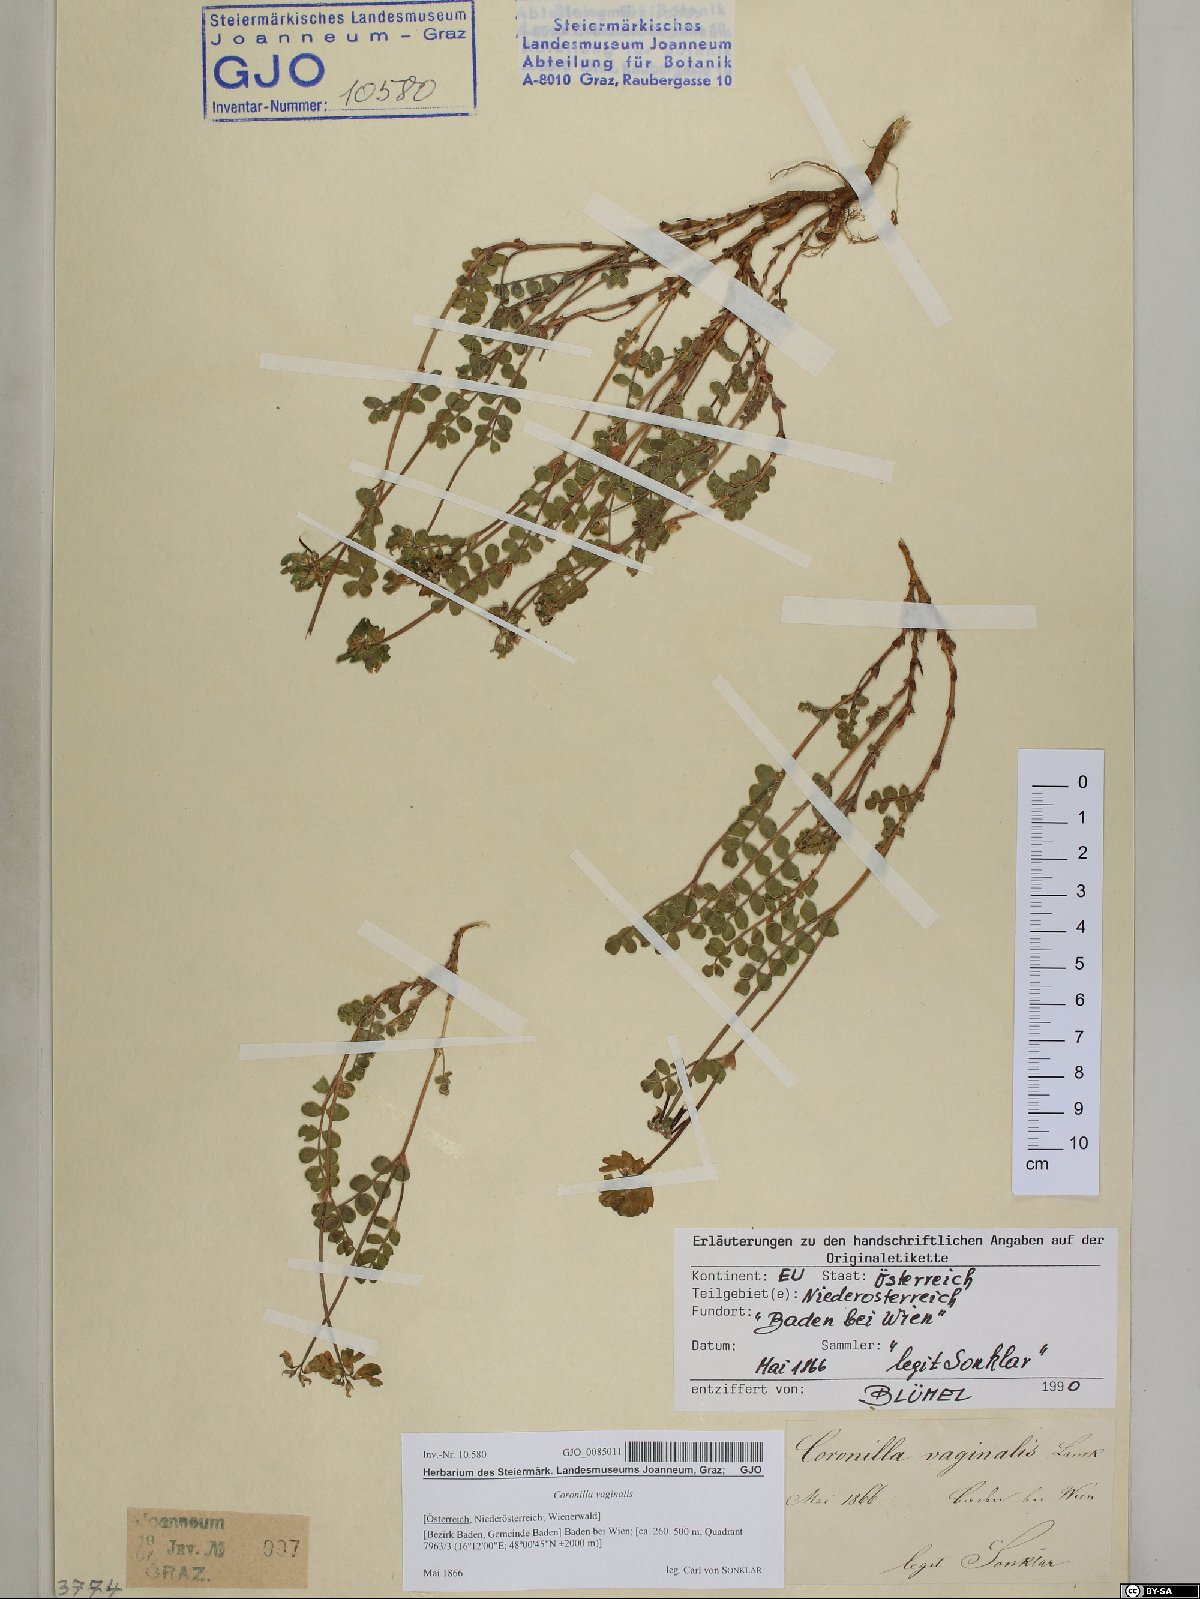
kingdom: Plantae
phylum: Tracheophyta
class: Magnoliopsida
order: Fabales
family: Fabaceae
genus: Coronilla
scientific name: Coronilla vaginalis
